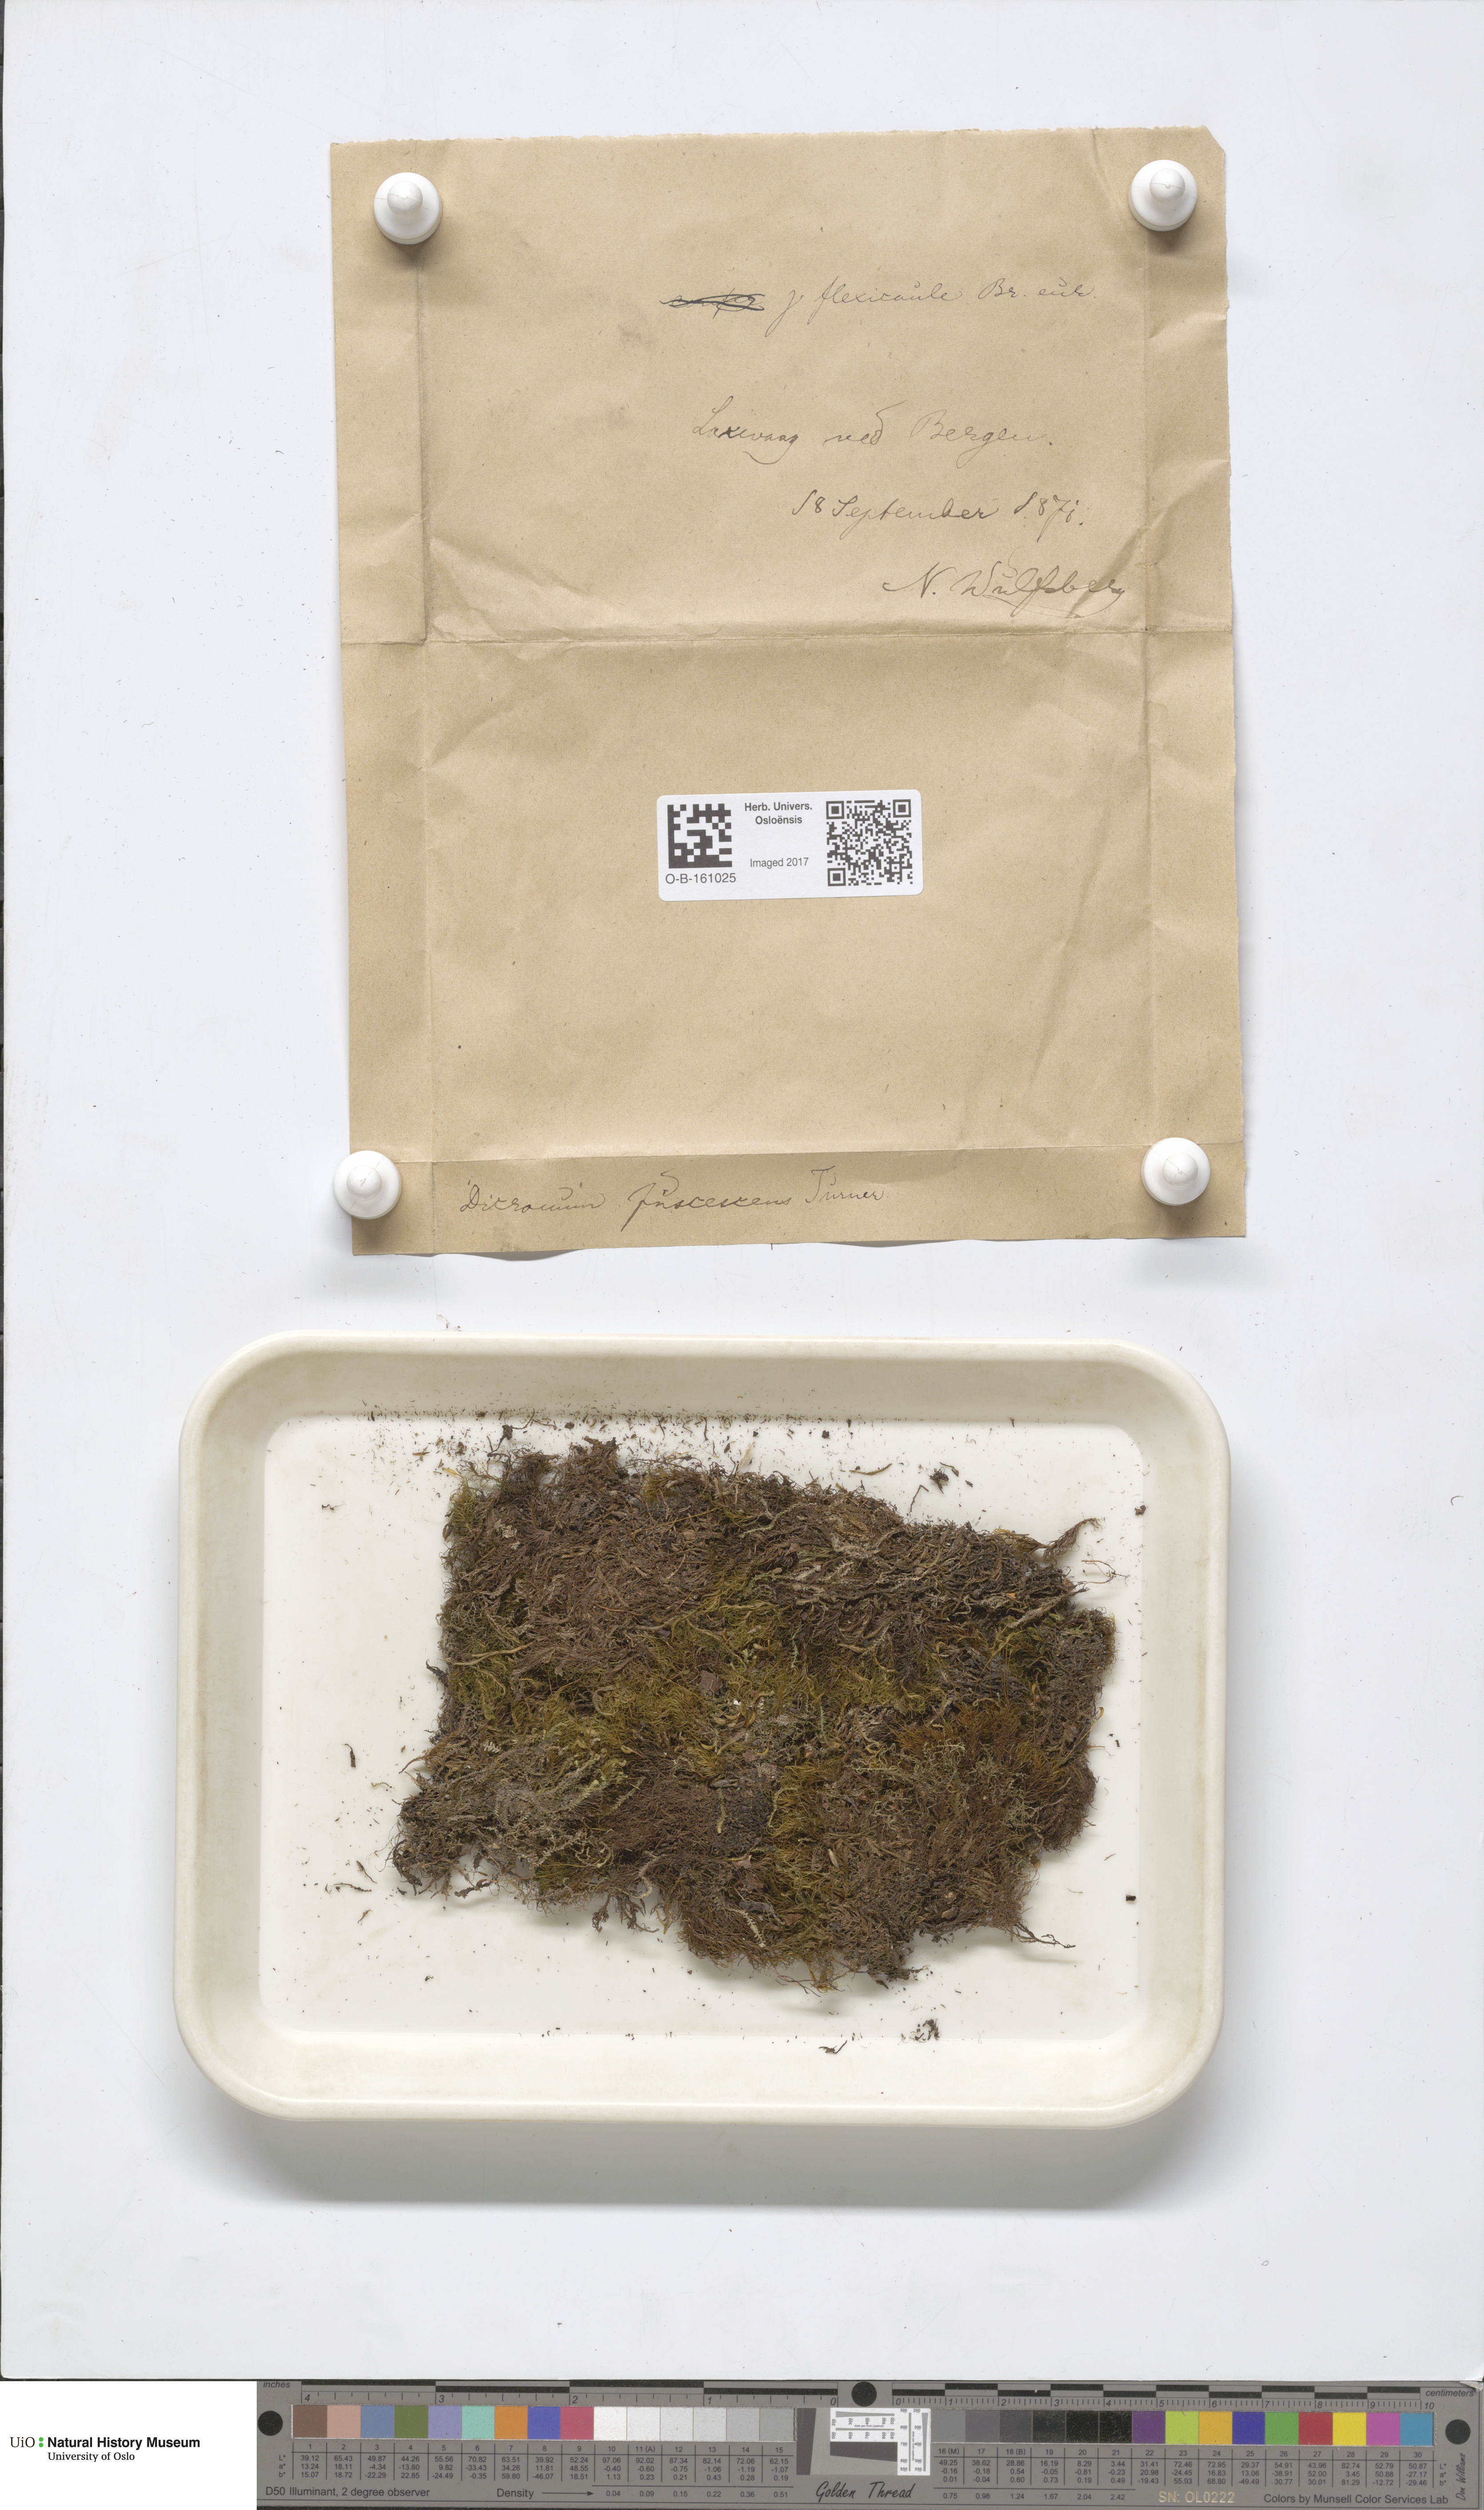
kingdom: Plantae
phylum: Bryophyta
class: Bryopsida
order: Dicranales
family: Dicranaceae
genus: Dicranum
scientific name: Dicranum fuscescens
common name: Curly heron's-bill moss
